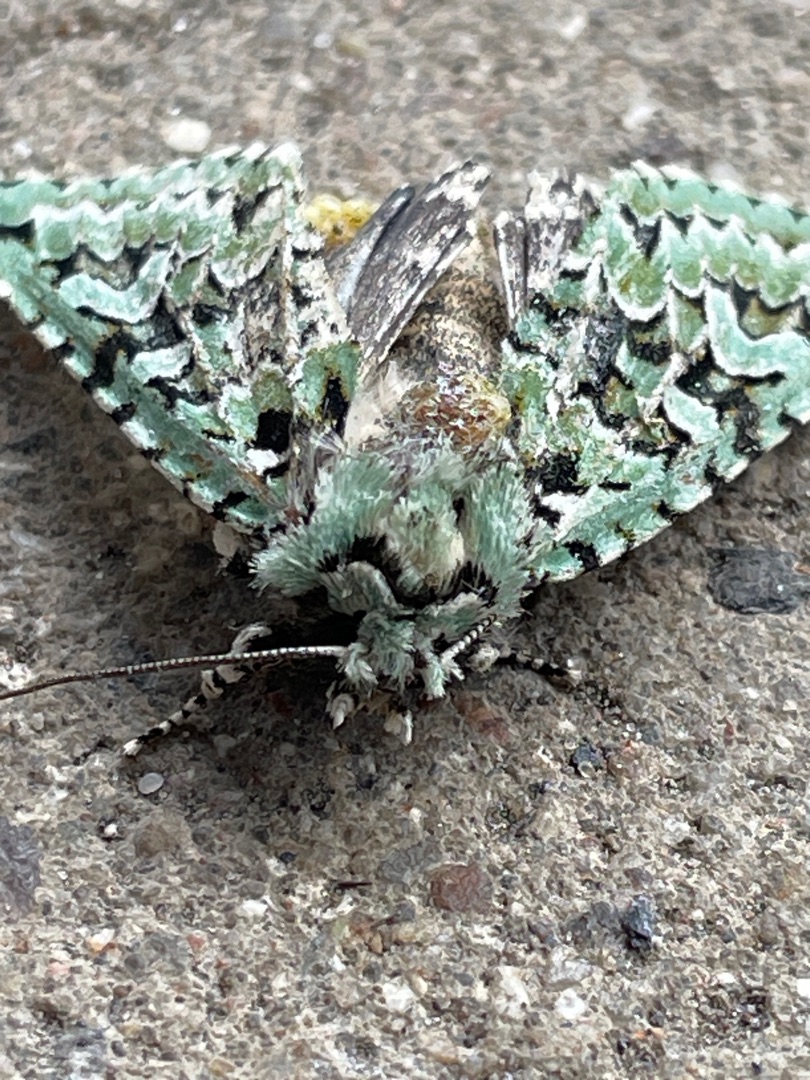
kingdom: Animalia
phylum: Arthropoda
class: Insecta
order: Lepidoptera
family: Noctuidae
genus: Griposia
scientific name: Griposia aprilina
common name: Aprilugle
